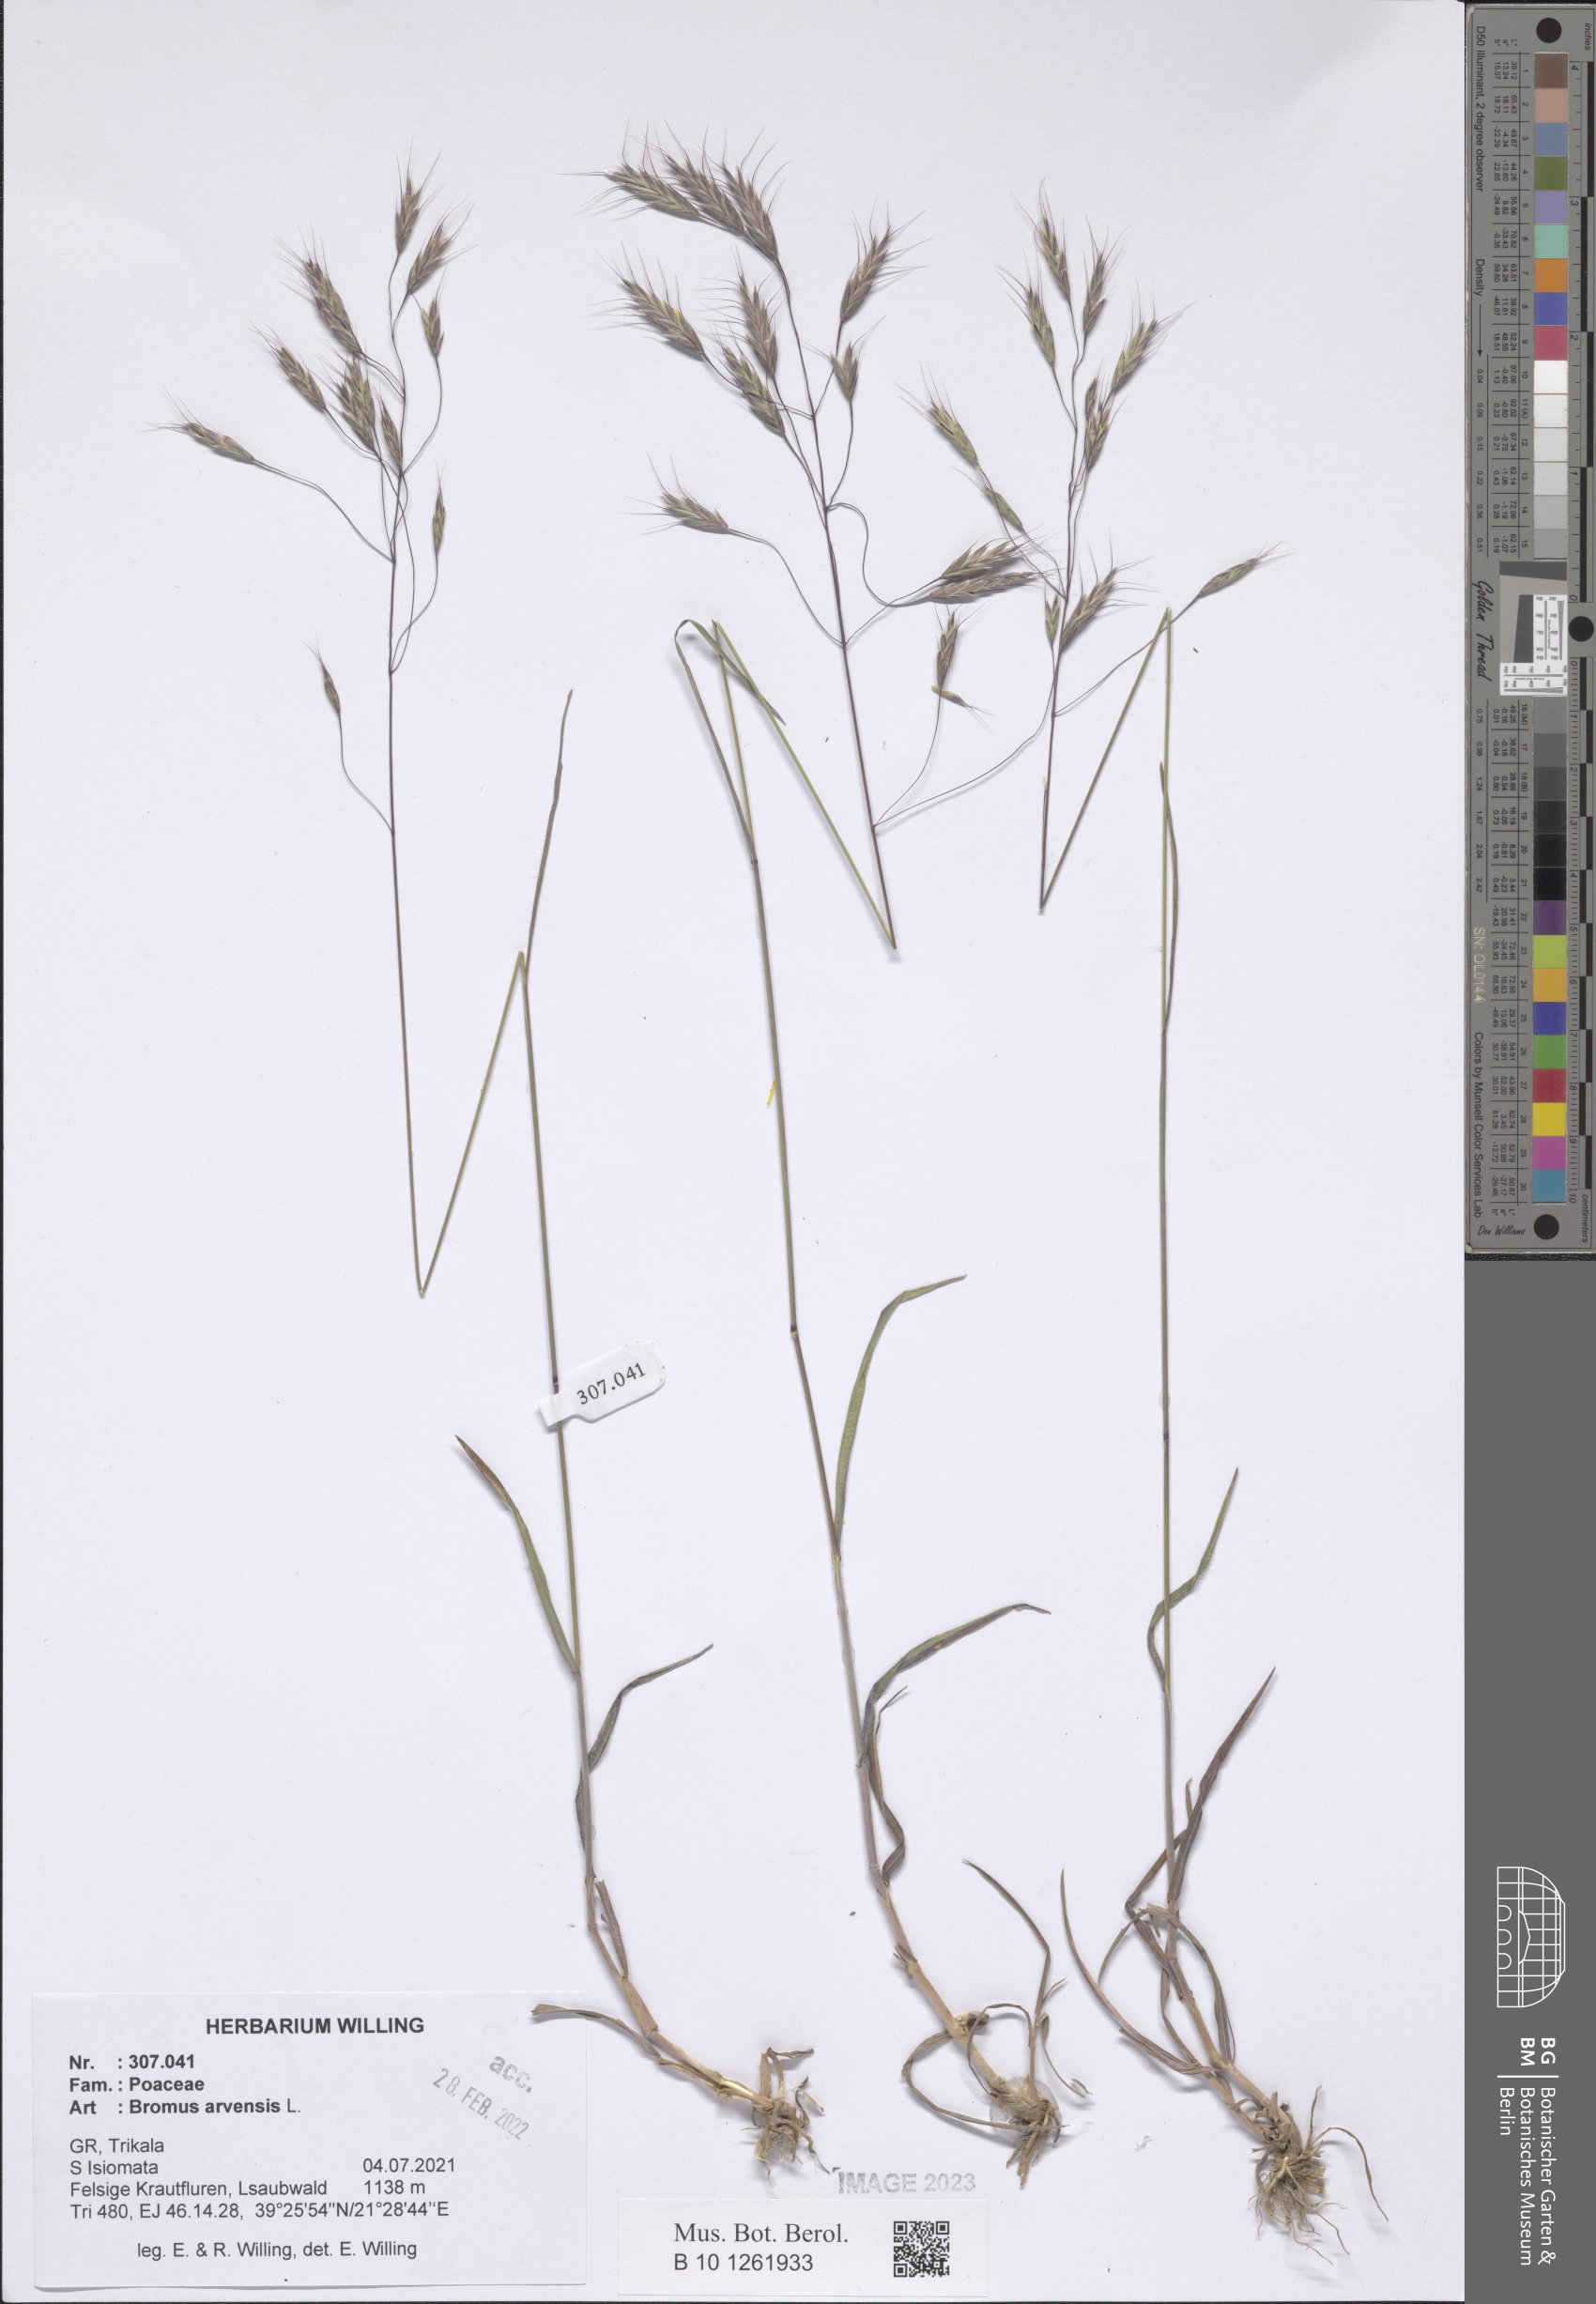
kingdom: Plantae
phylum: Tracheophyta
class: Liliopsida
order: Poales
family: Poaceae
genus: Bromus
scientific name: Bromus arvensis
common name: Field brome
